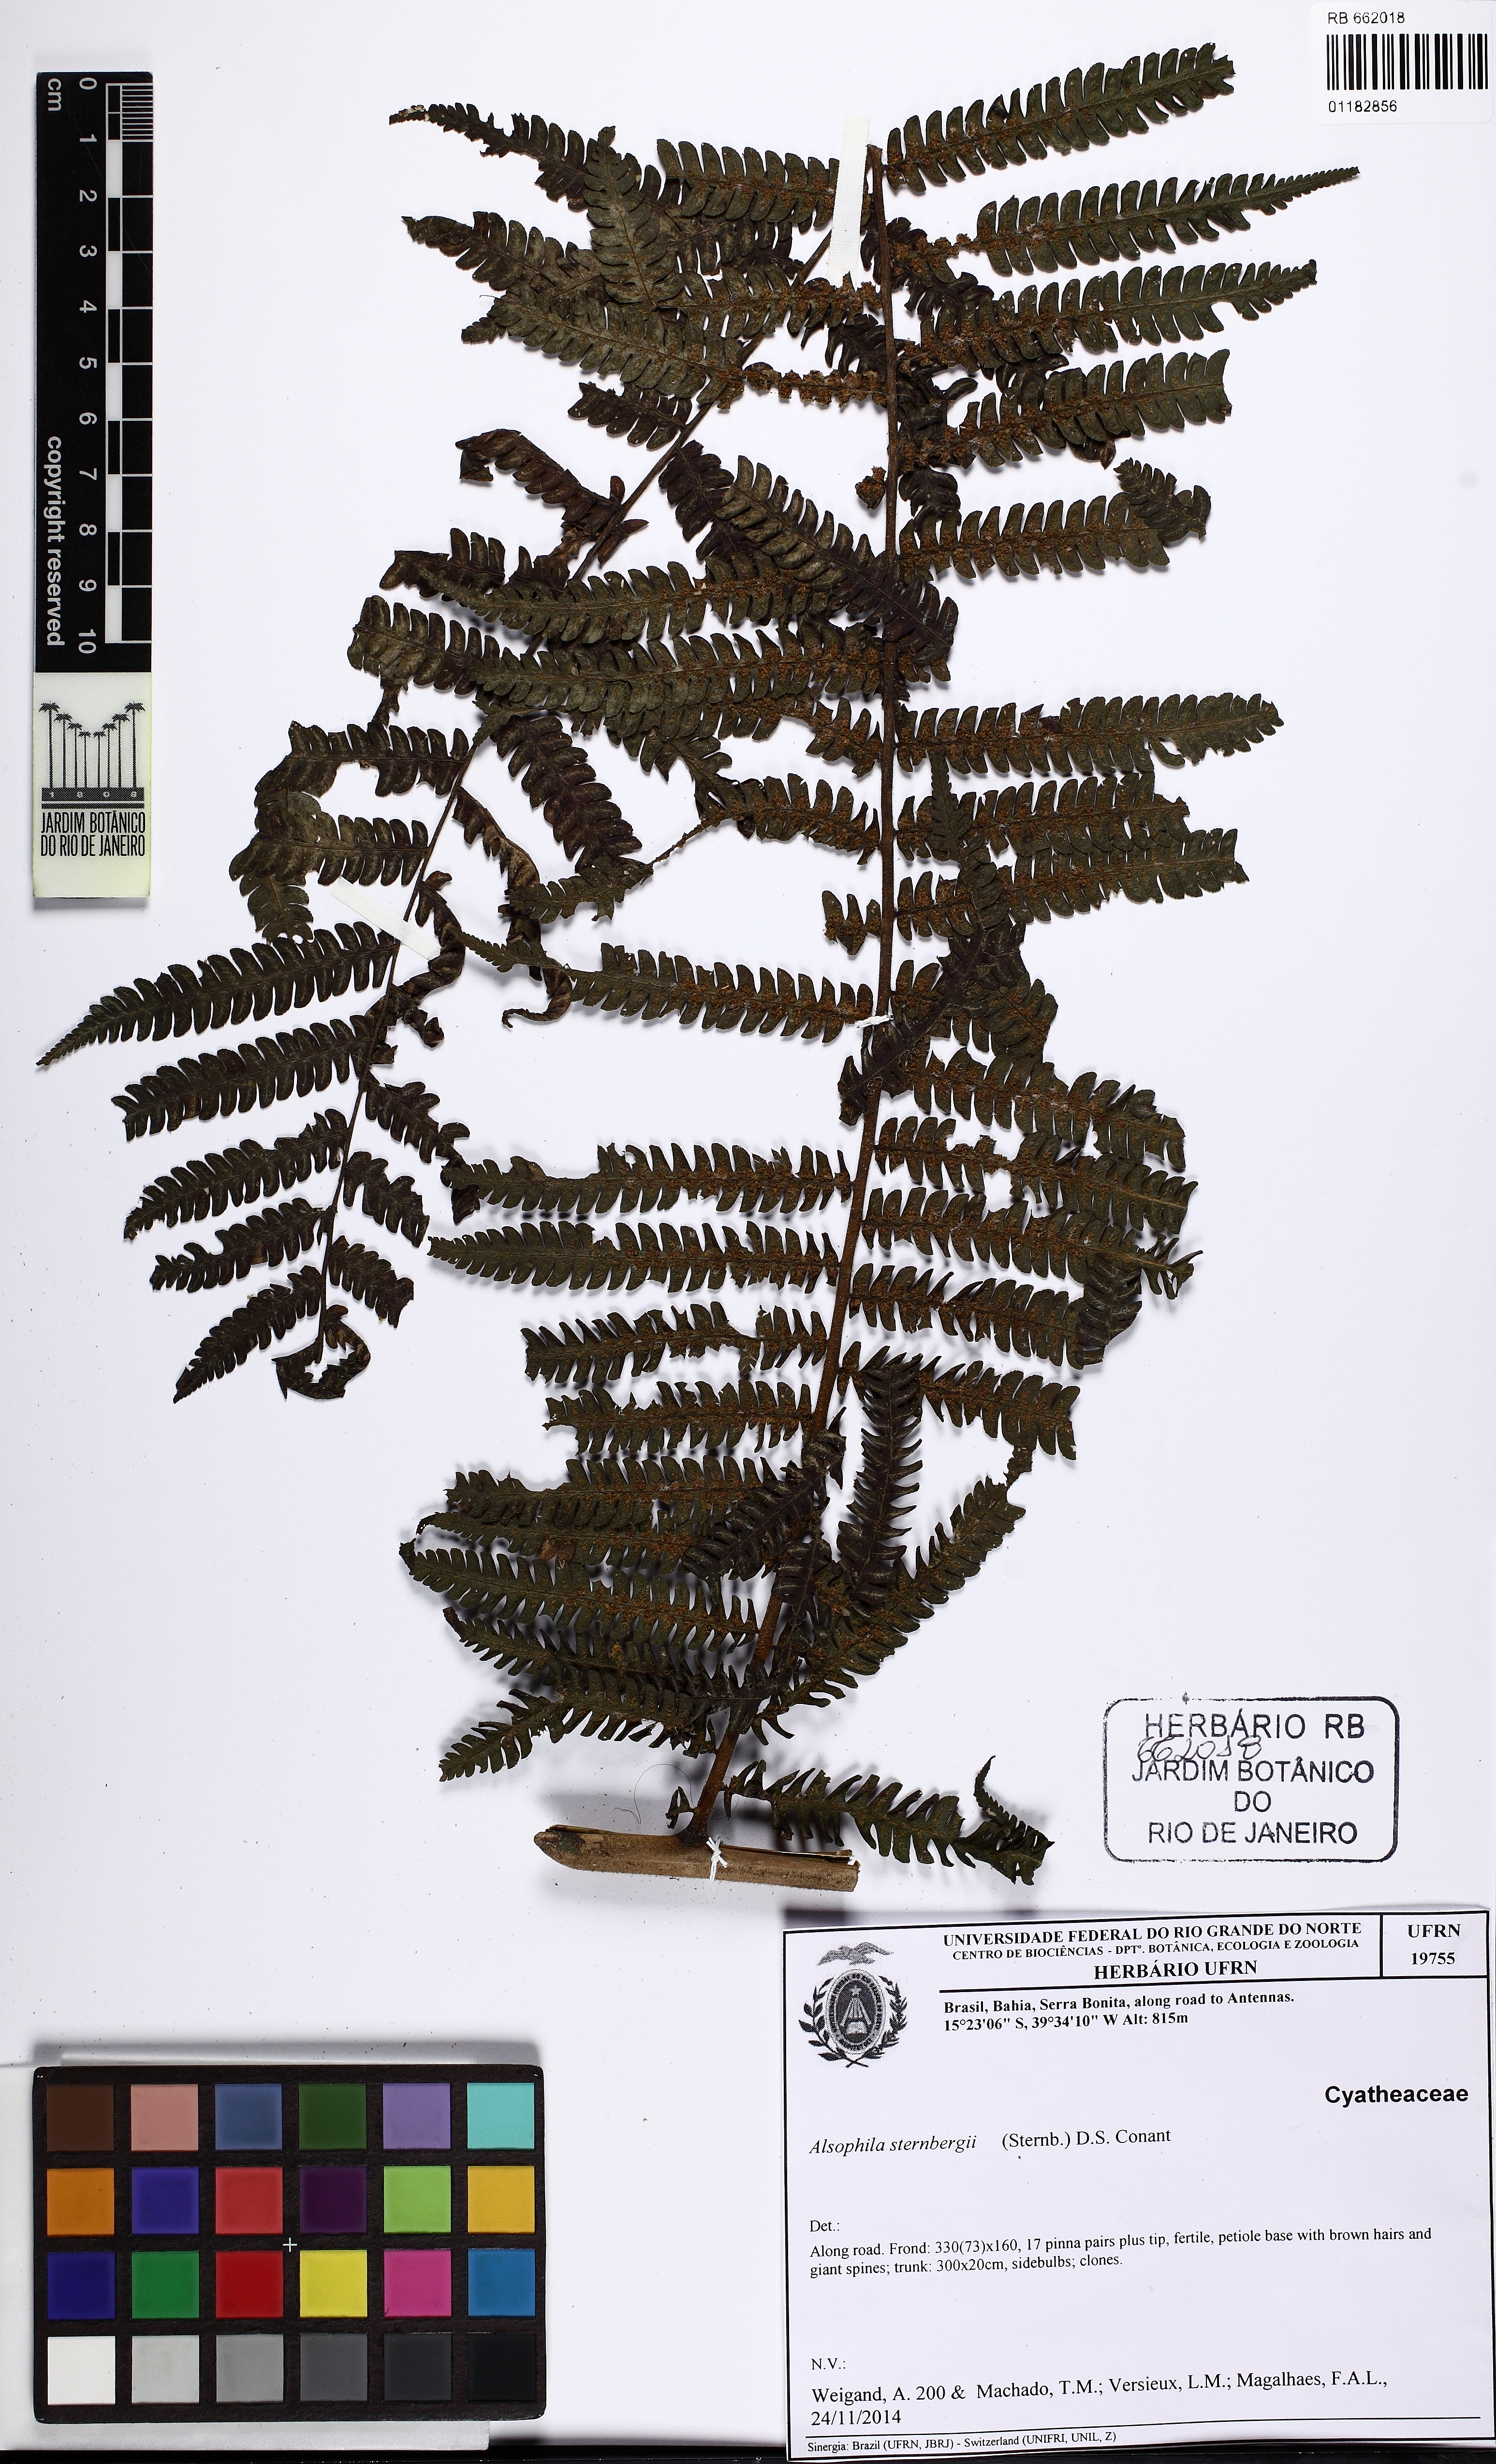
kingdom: Plantae
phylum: Tracheophyta
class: Polypodiopsida
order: Cyatheales
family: Cyatheaceae
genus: Alsophila
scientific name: Alsophila sternbergii
